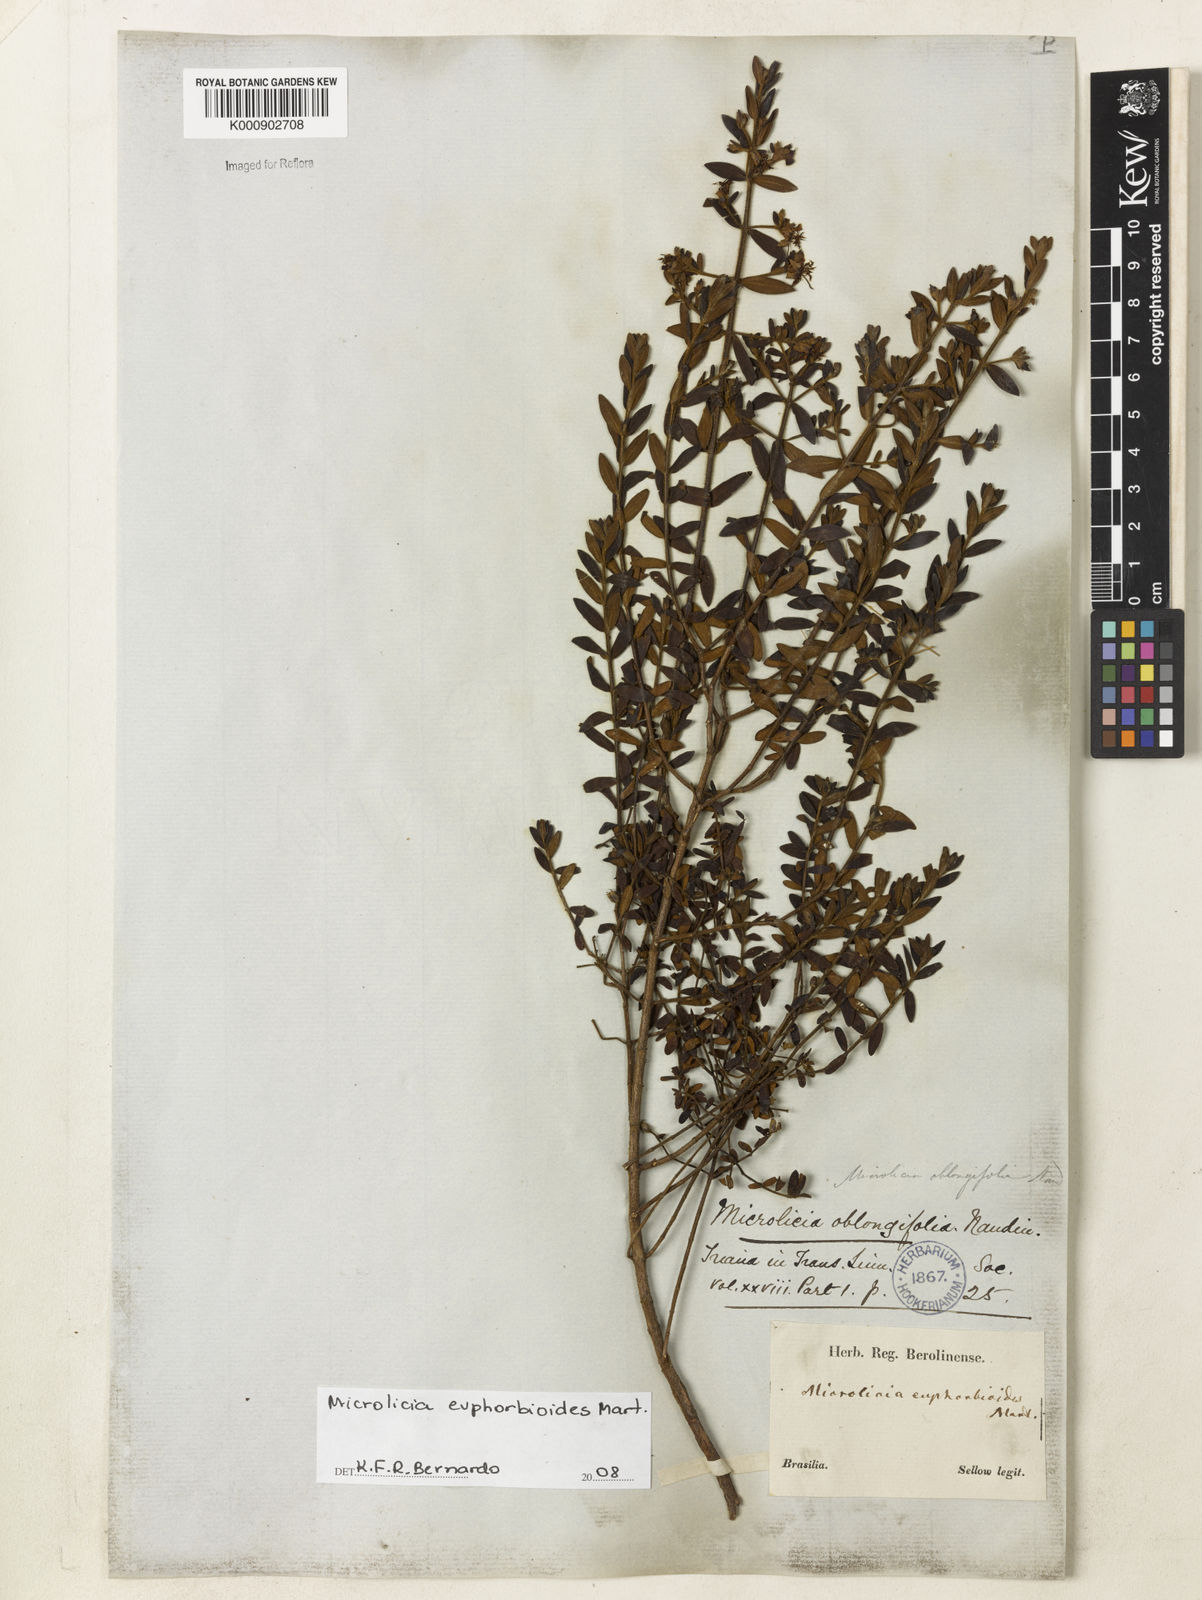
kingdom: Plantae
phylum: Tracheophyta
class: Magnoliopsida
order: Myrtales
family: Melastomataceae
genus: Microlicia
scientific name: Microlicia euphorbioides
